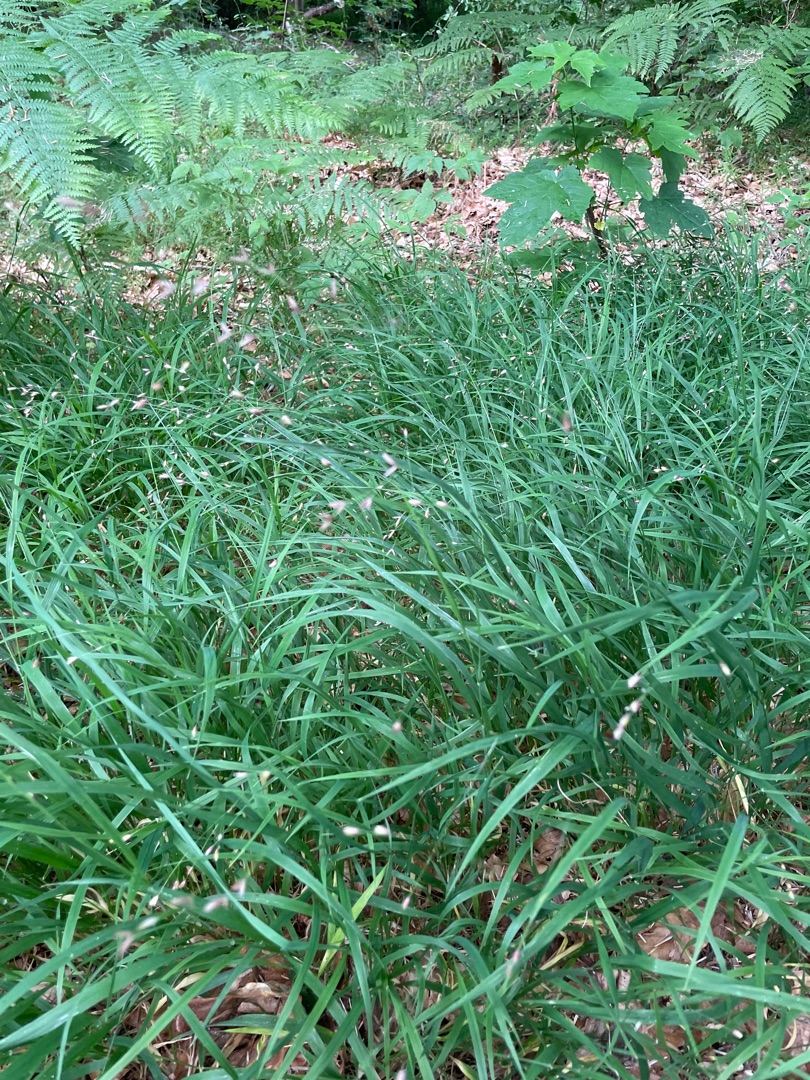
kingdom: Plantae
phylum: Tracheophyta
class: Liliopsida
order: Poales
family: Poaceae
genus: Melica
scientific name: Melica uniflora
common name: Enblomstret flitteraks
